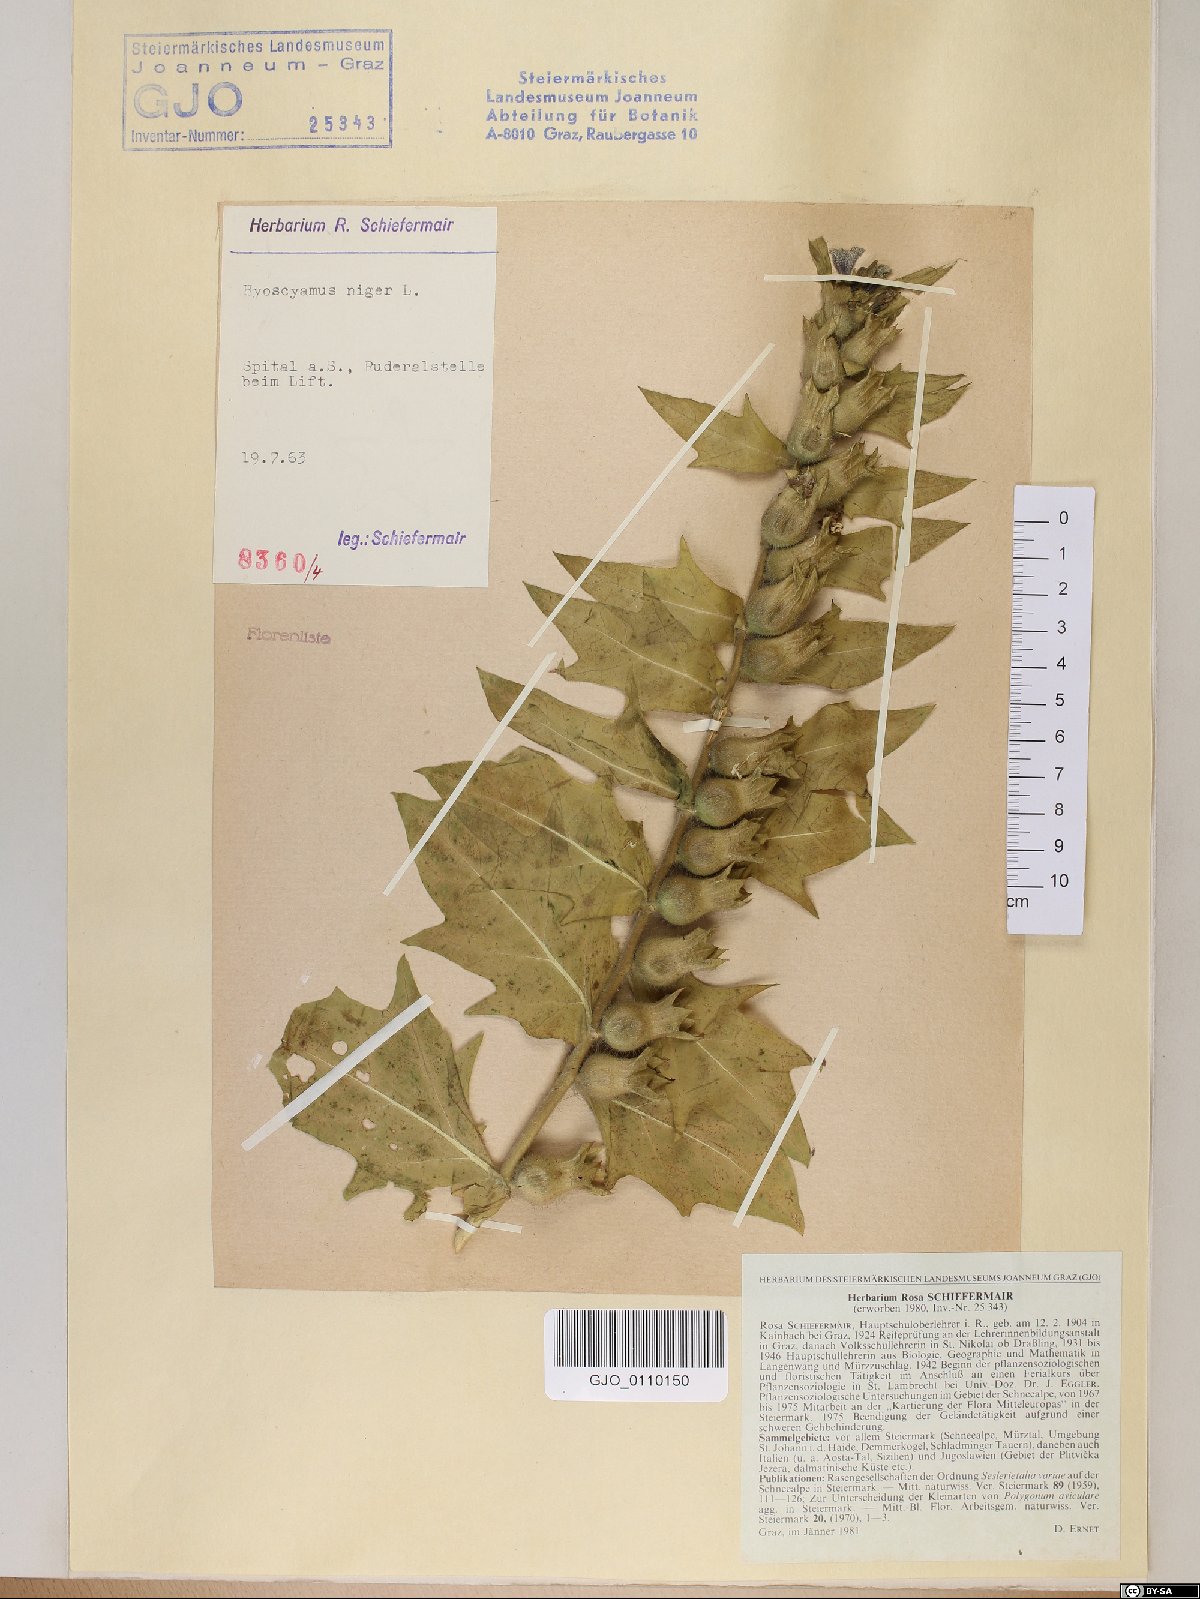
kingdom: Plantae
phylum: Tracheophyta
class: Magnoliopsida
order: Solanales
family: Solanaceae
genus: Hyoscyamus
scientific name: Hyoscyamus niger
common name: Henbane
